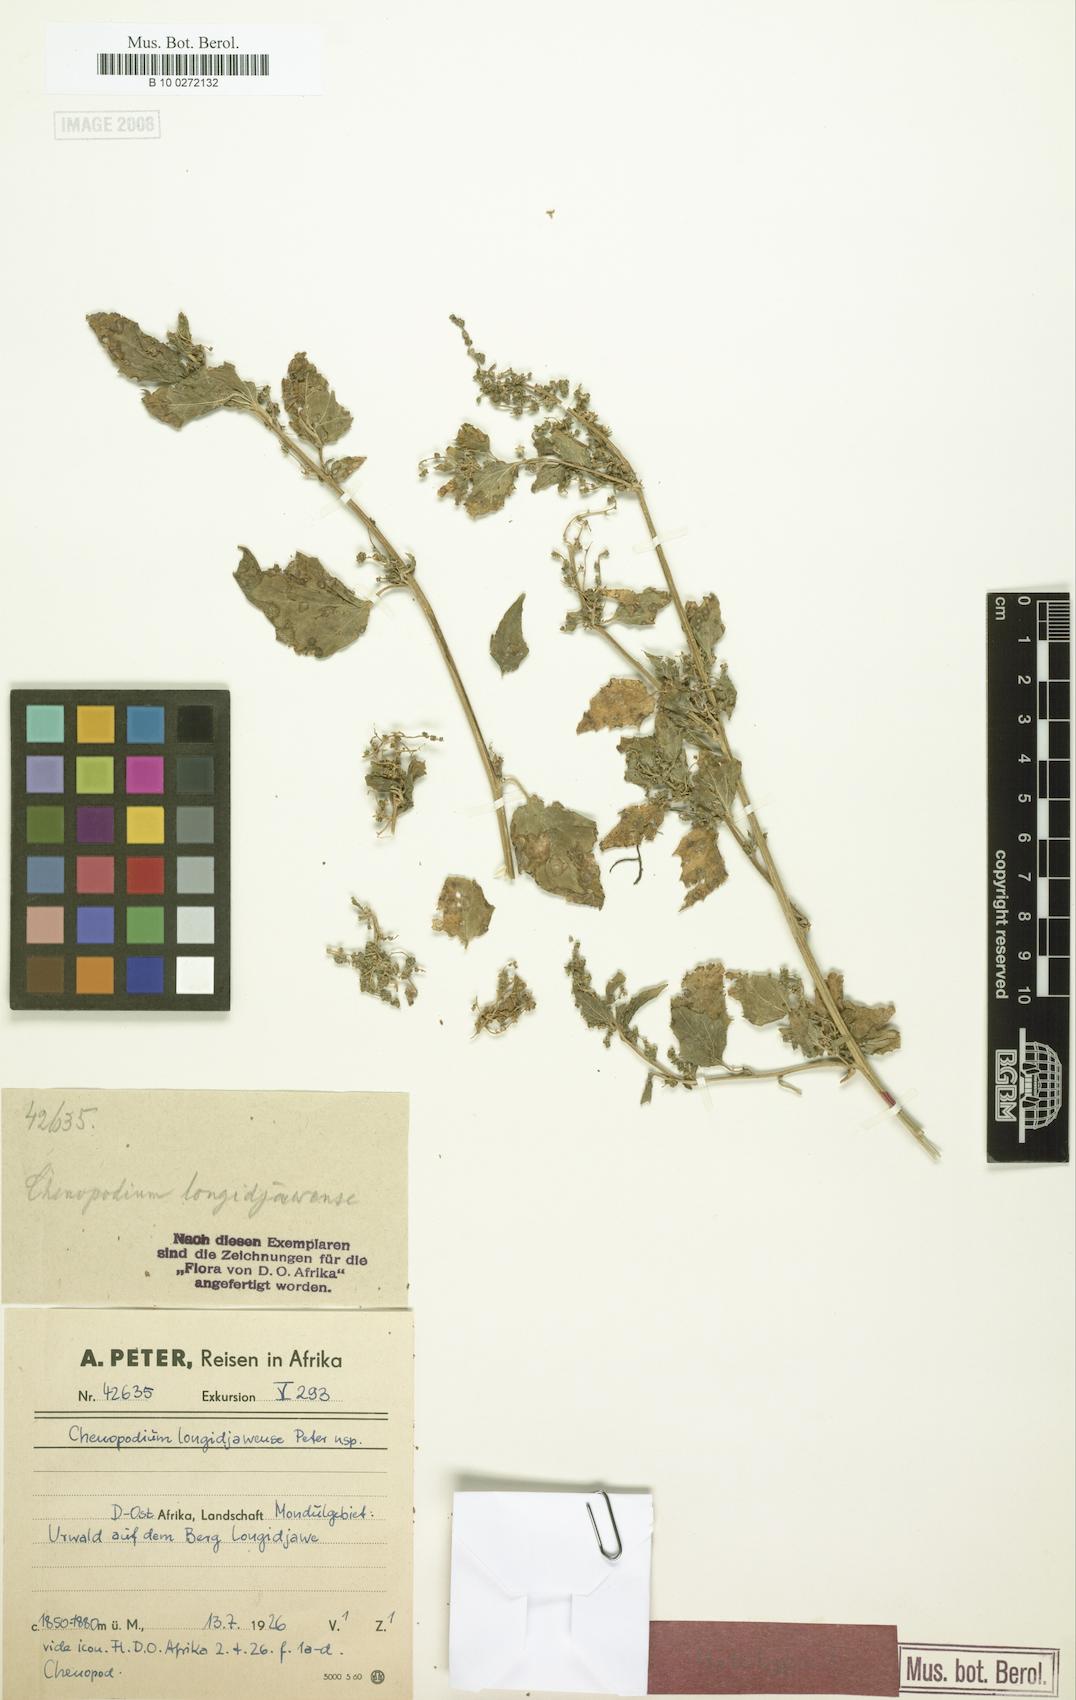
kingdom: Plantae
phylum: Tracheophyta
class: Magnoliopsida
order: Caryophyllales
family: Amaranthaceae
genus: Chenopodiastrum
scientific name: Chenopodiastrum murale
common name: Sowbane
